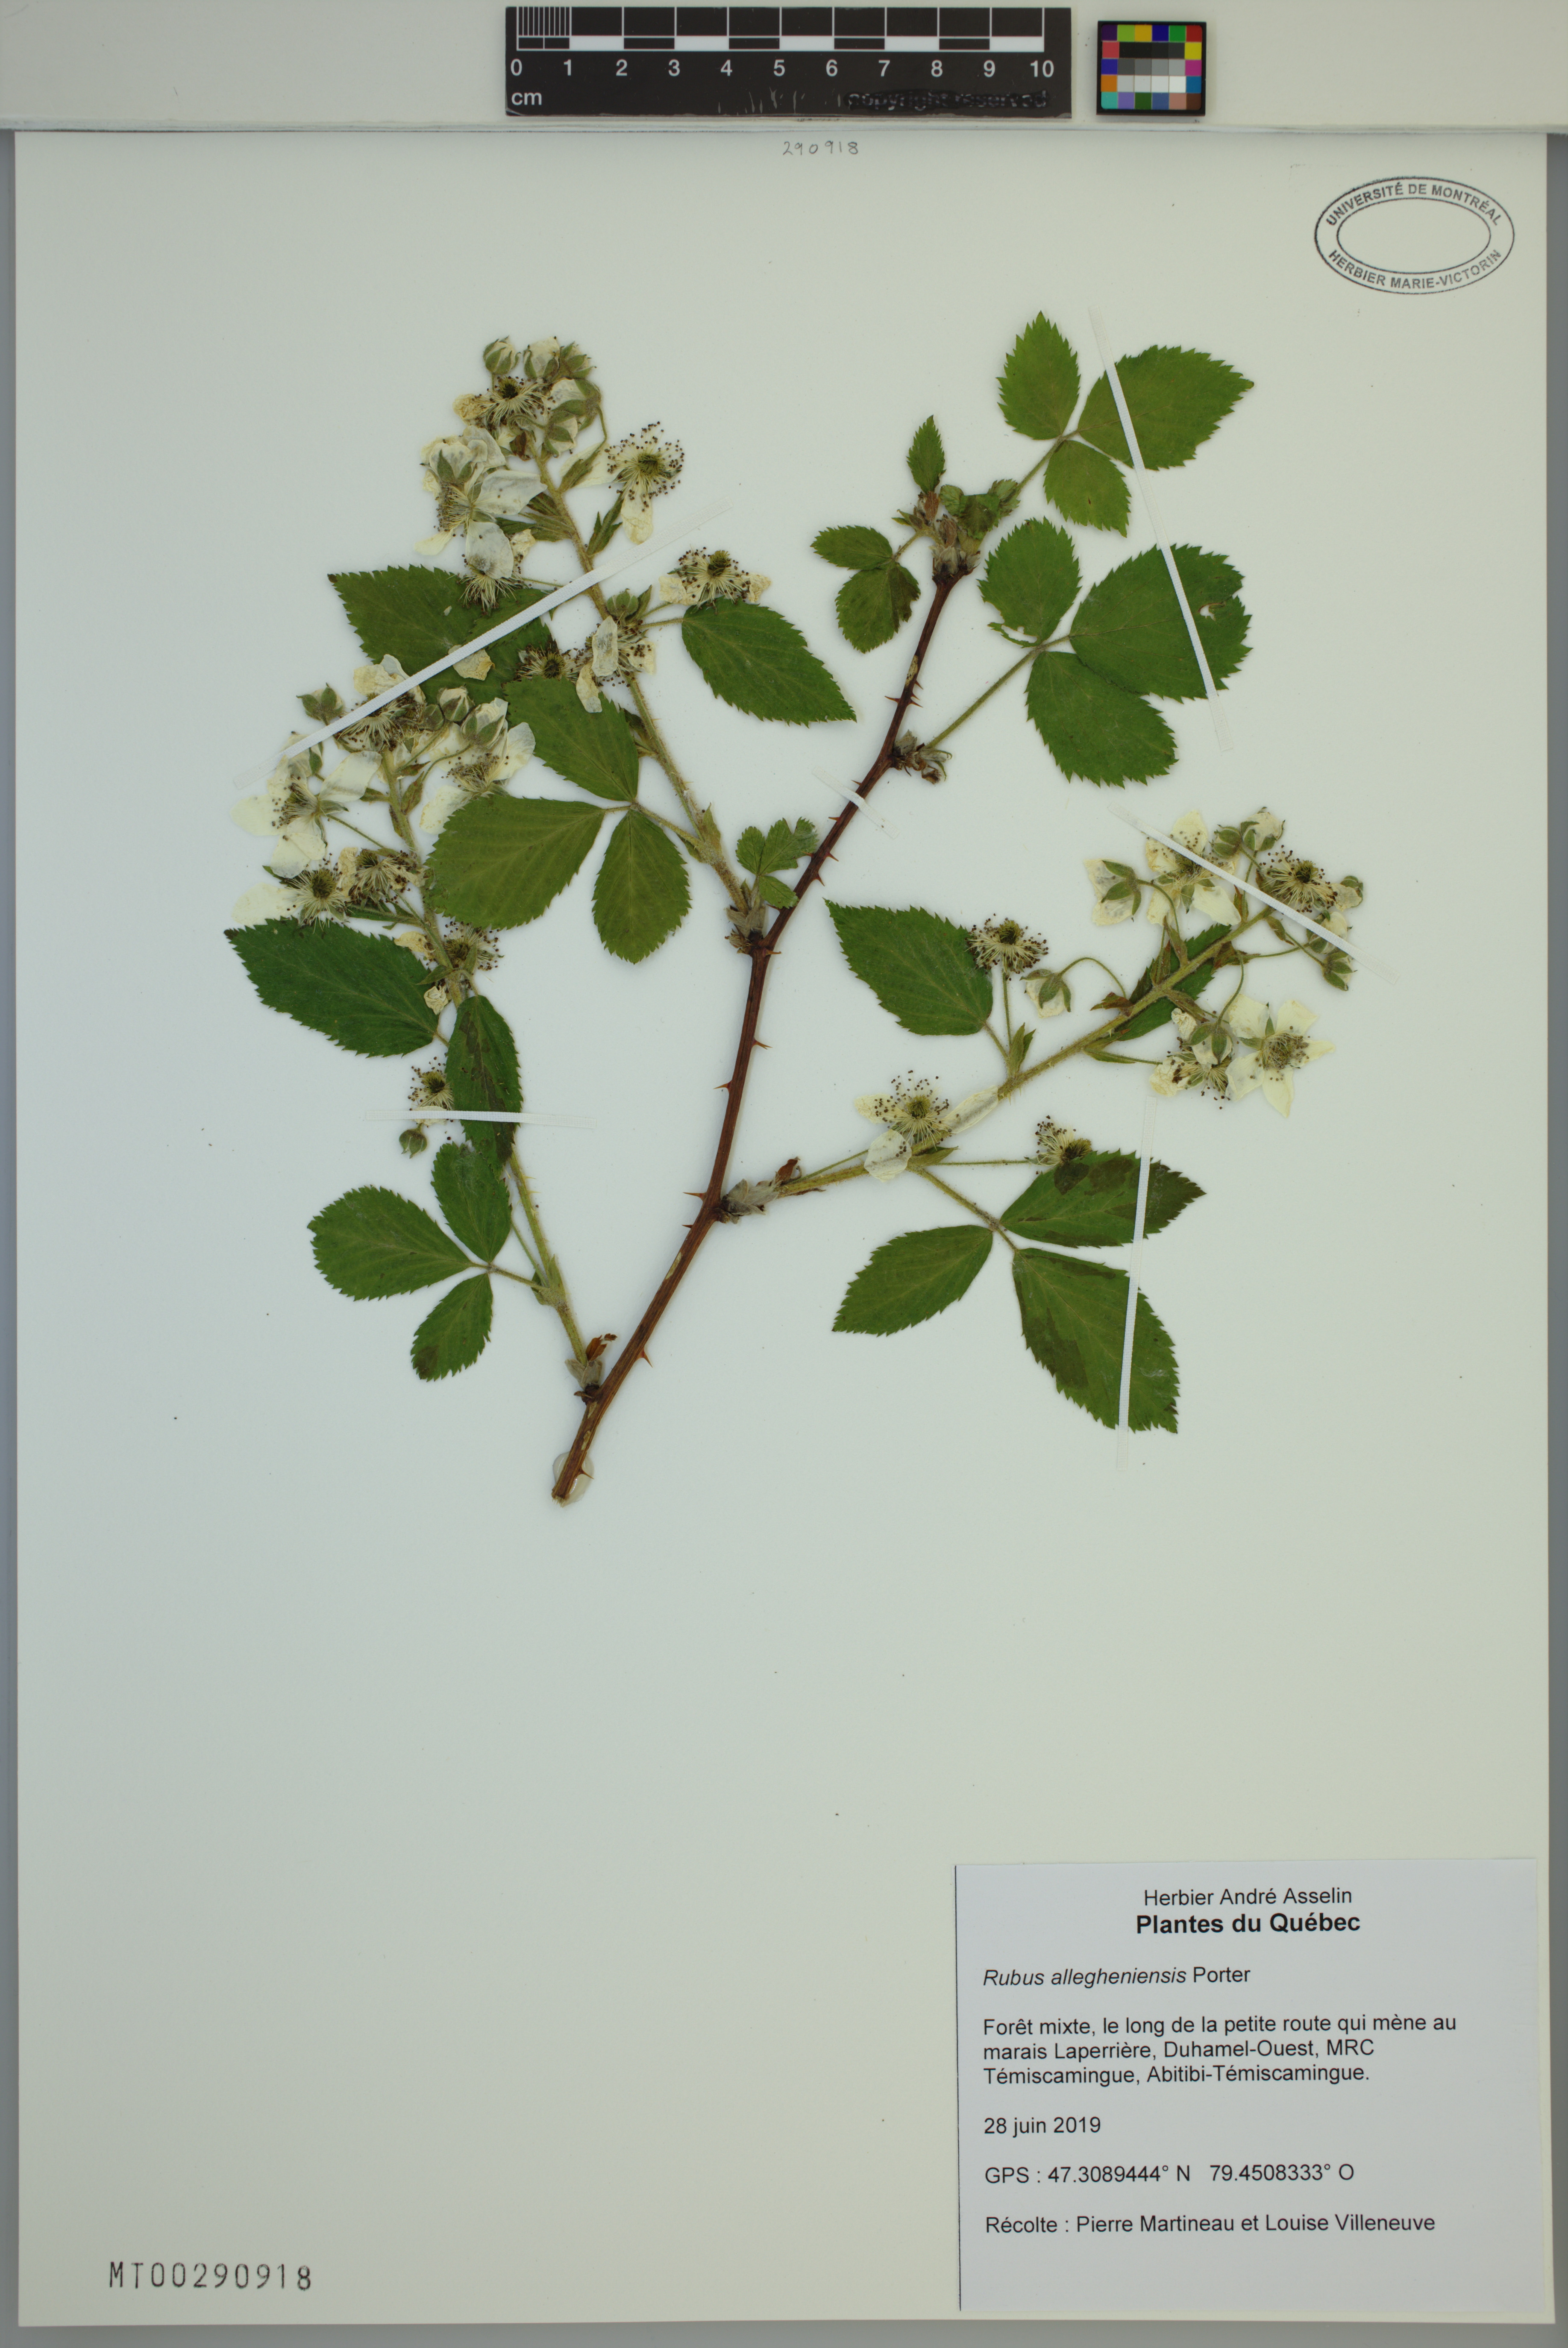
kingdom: Plantae
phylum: Tracheophyta
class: Magnoliopsida
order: Rosales
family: Rosaceae
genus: Rubus
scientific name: Rubus allegheniensis
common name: Allegheny blackberry
